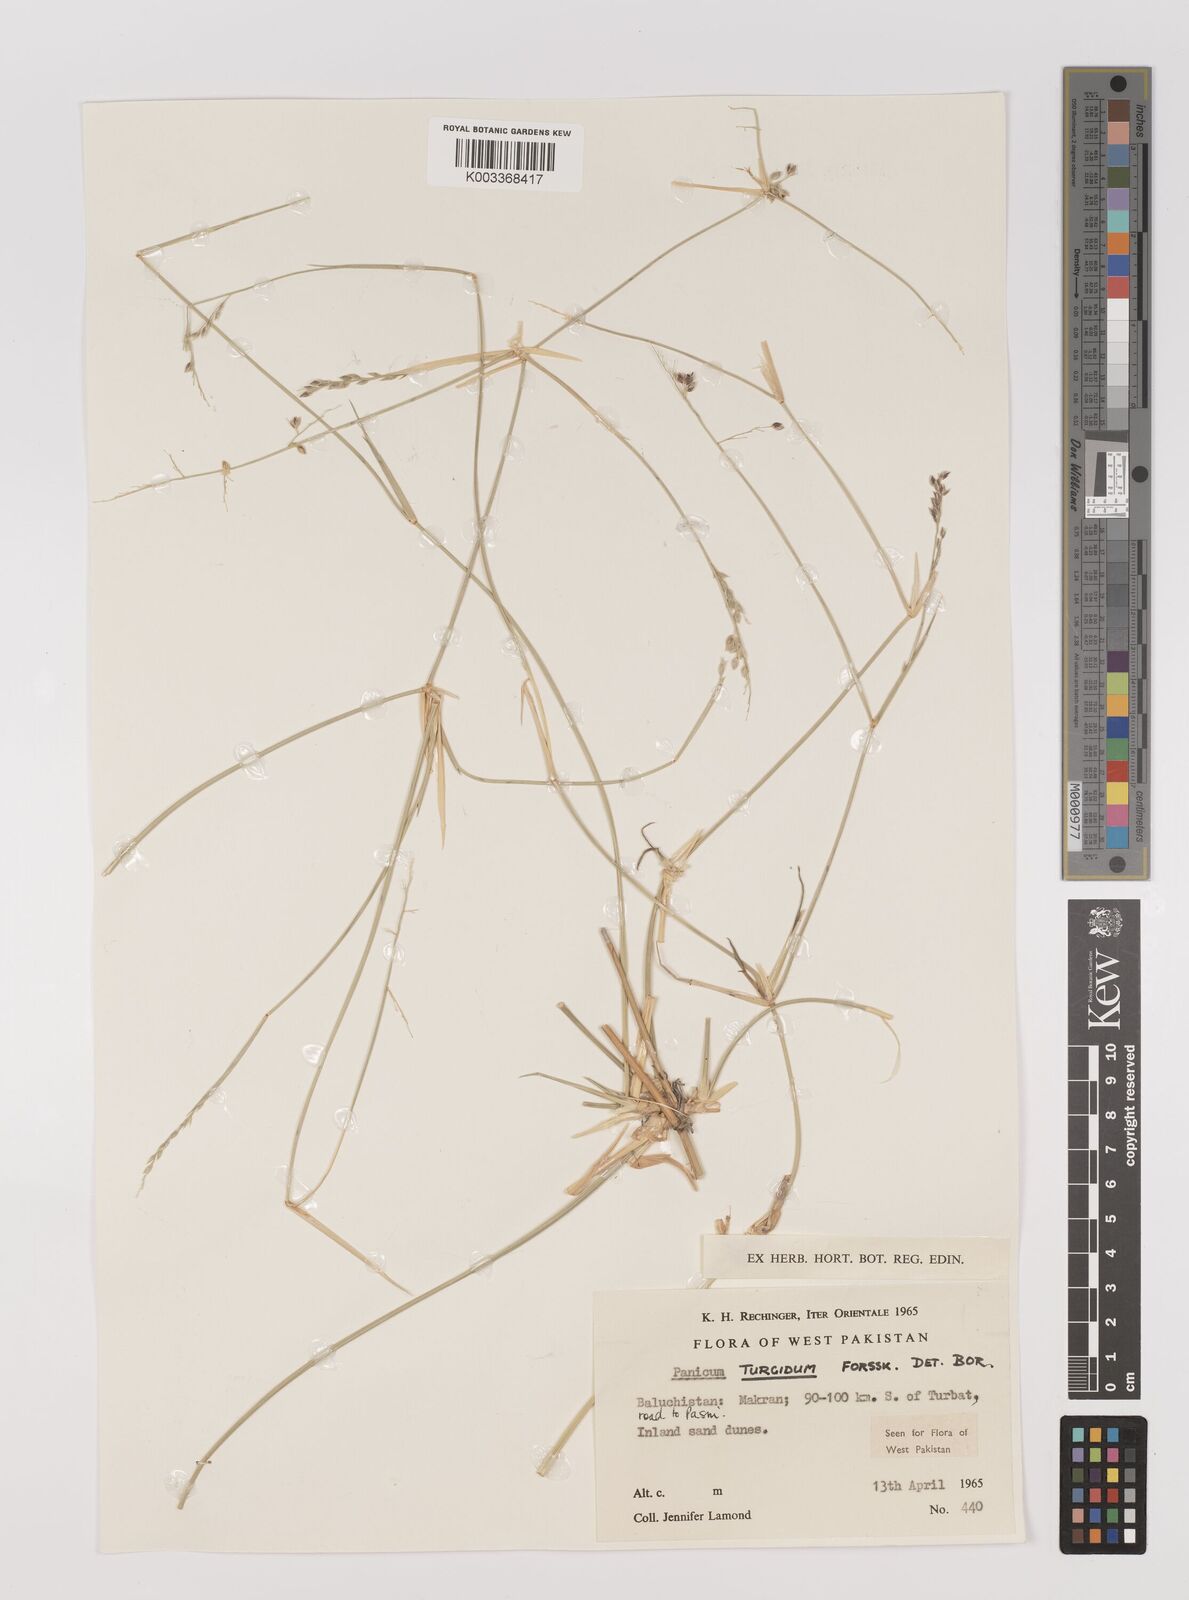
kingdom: Plantae
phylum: Tracheophyta
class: Liliopsida
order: Poales
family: Poaceae
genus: Panicum
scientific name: Panicum turgidum
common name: Desert grass
